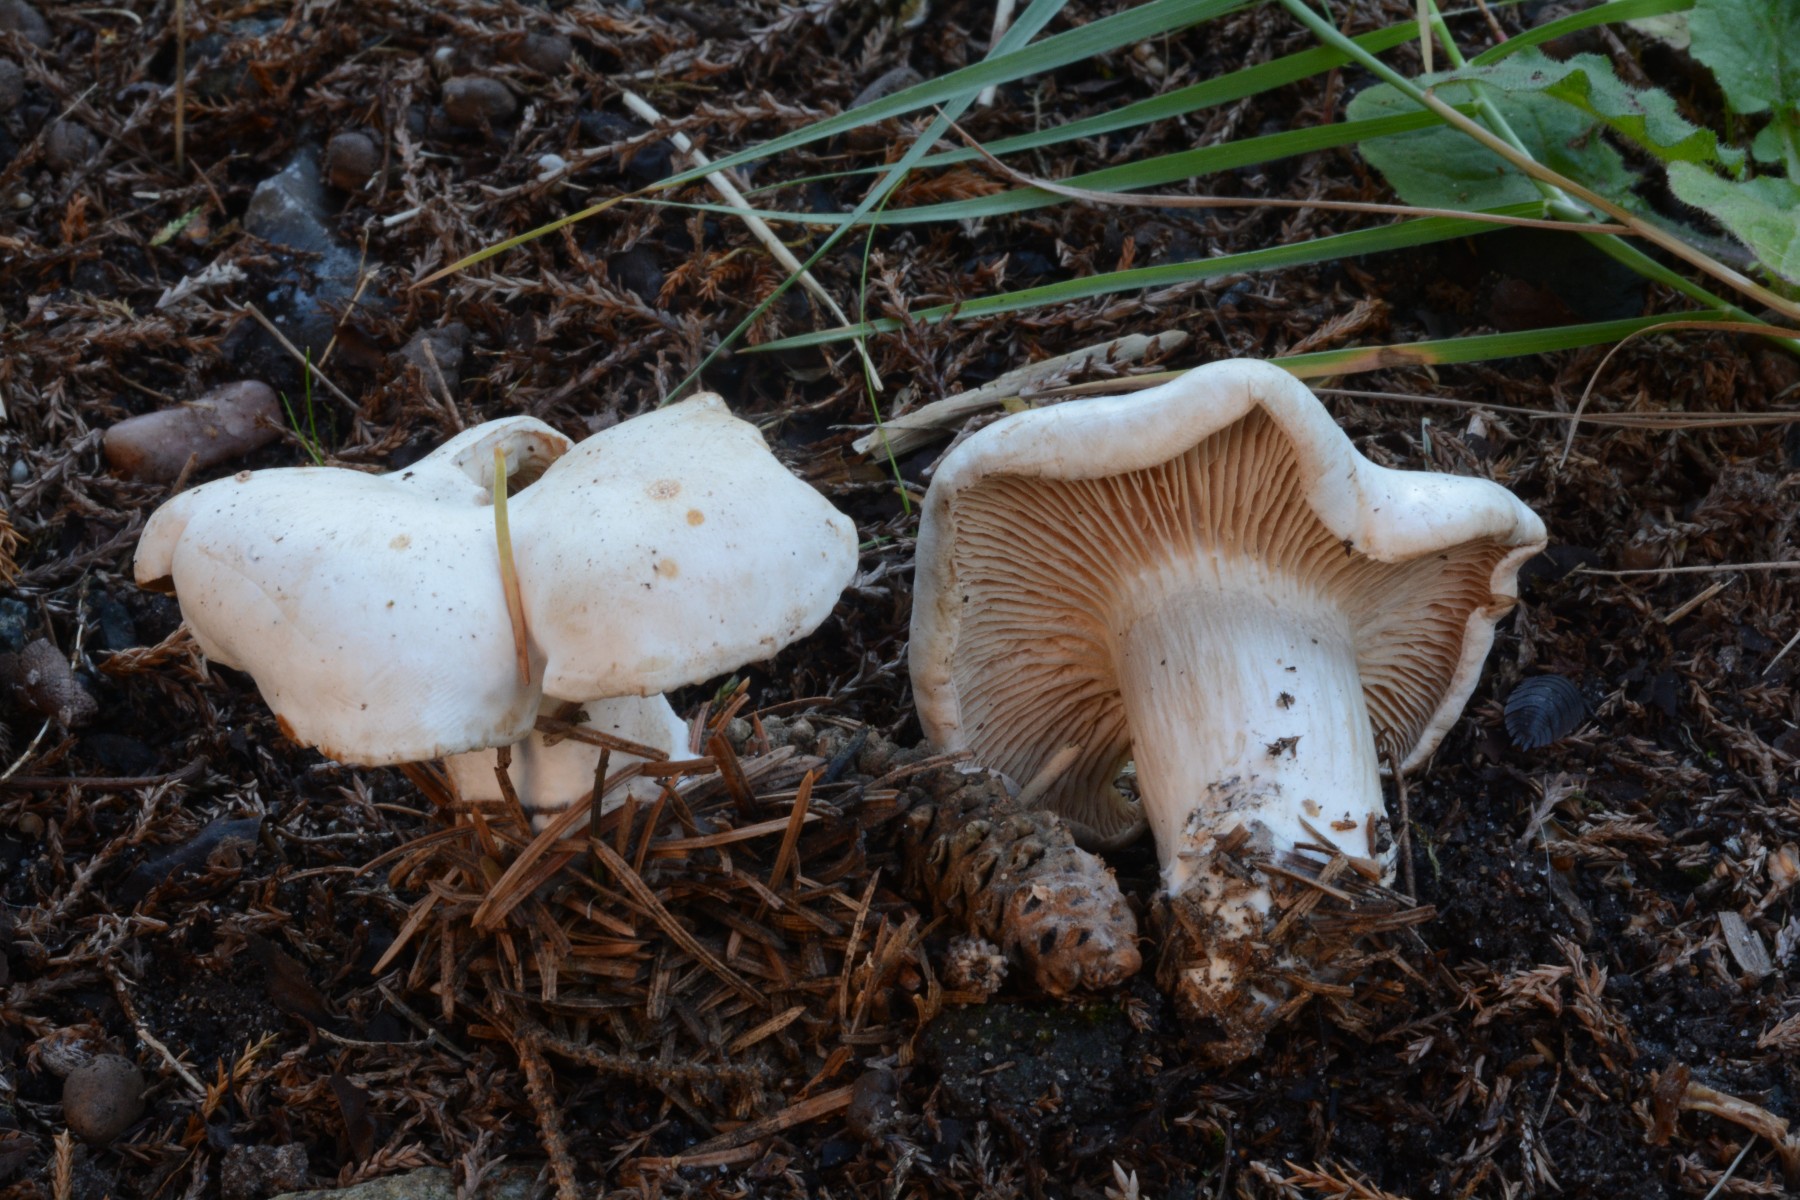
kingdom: Fungi
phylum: Basidiomycota
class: Agaricomycetes
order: Agaricales
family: Pseudoclitocybaceae
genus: Clitopaxillus
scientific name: Clitopaxillus fibulatus
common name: bestøvlet tragthat
